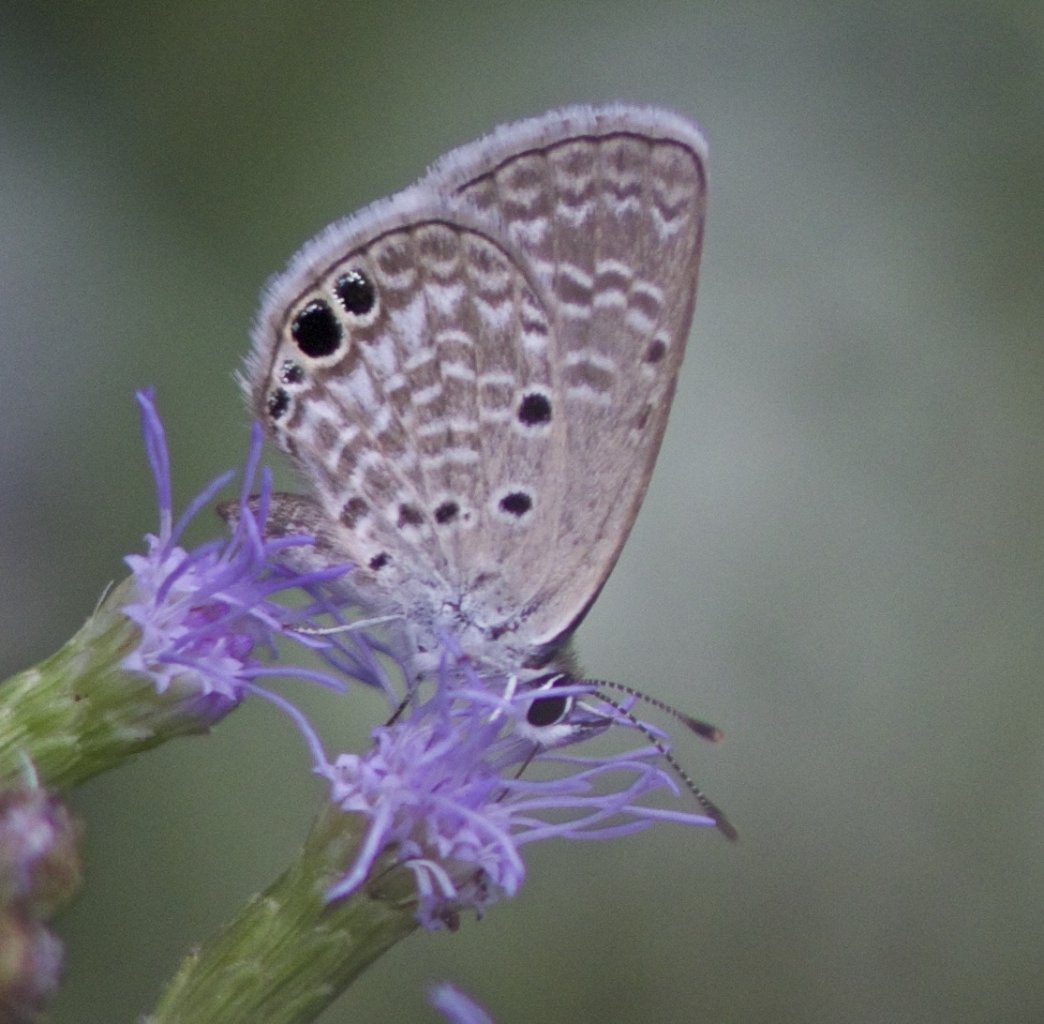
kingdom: Animalia
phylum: Arthropoda
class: Insecta
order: Lepidoptera
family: Lycaenidae
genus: Hemiargus
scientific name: Hemiargus ceraunus
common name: Ceraunus Blue
